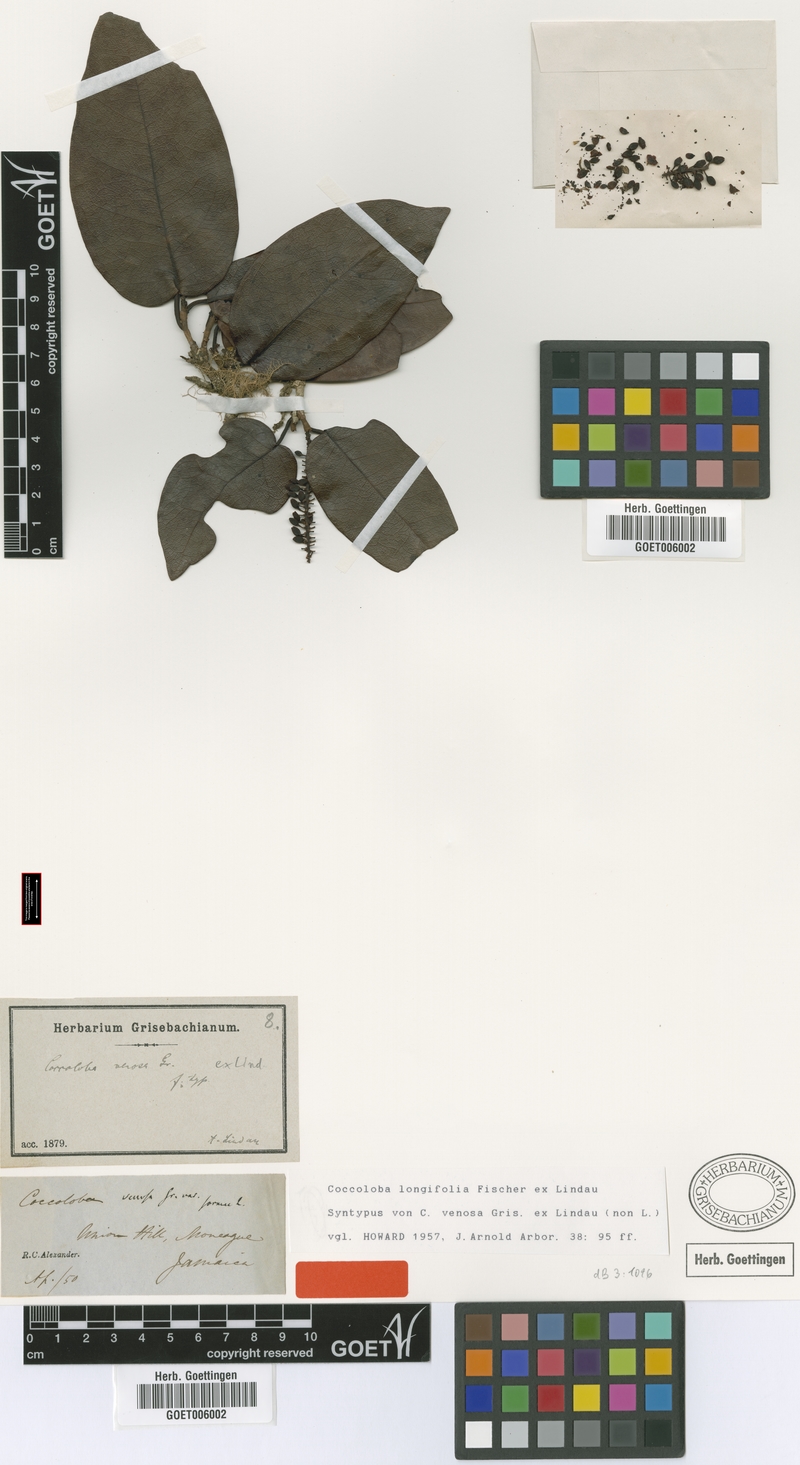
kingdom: Plantae
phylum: Tracheophyta
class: Magnoliopsida
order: Caryophyllales
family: Polygonaceae
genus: Coccoloba
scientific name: Coccoloba longifolia
